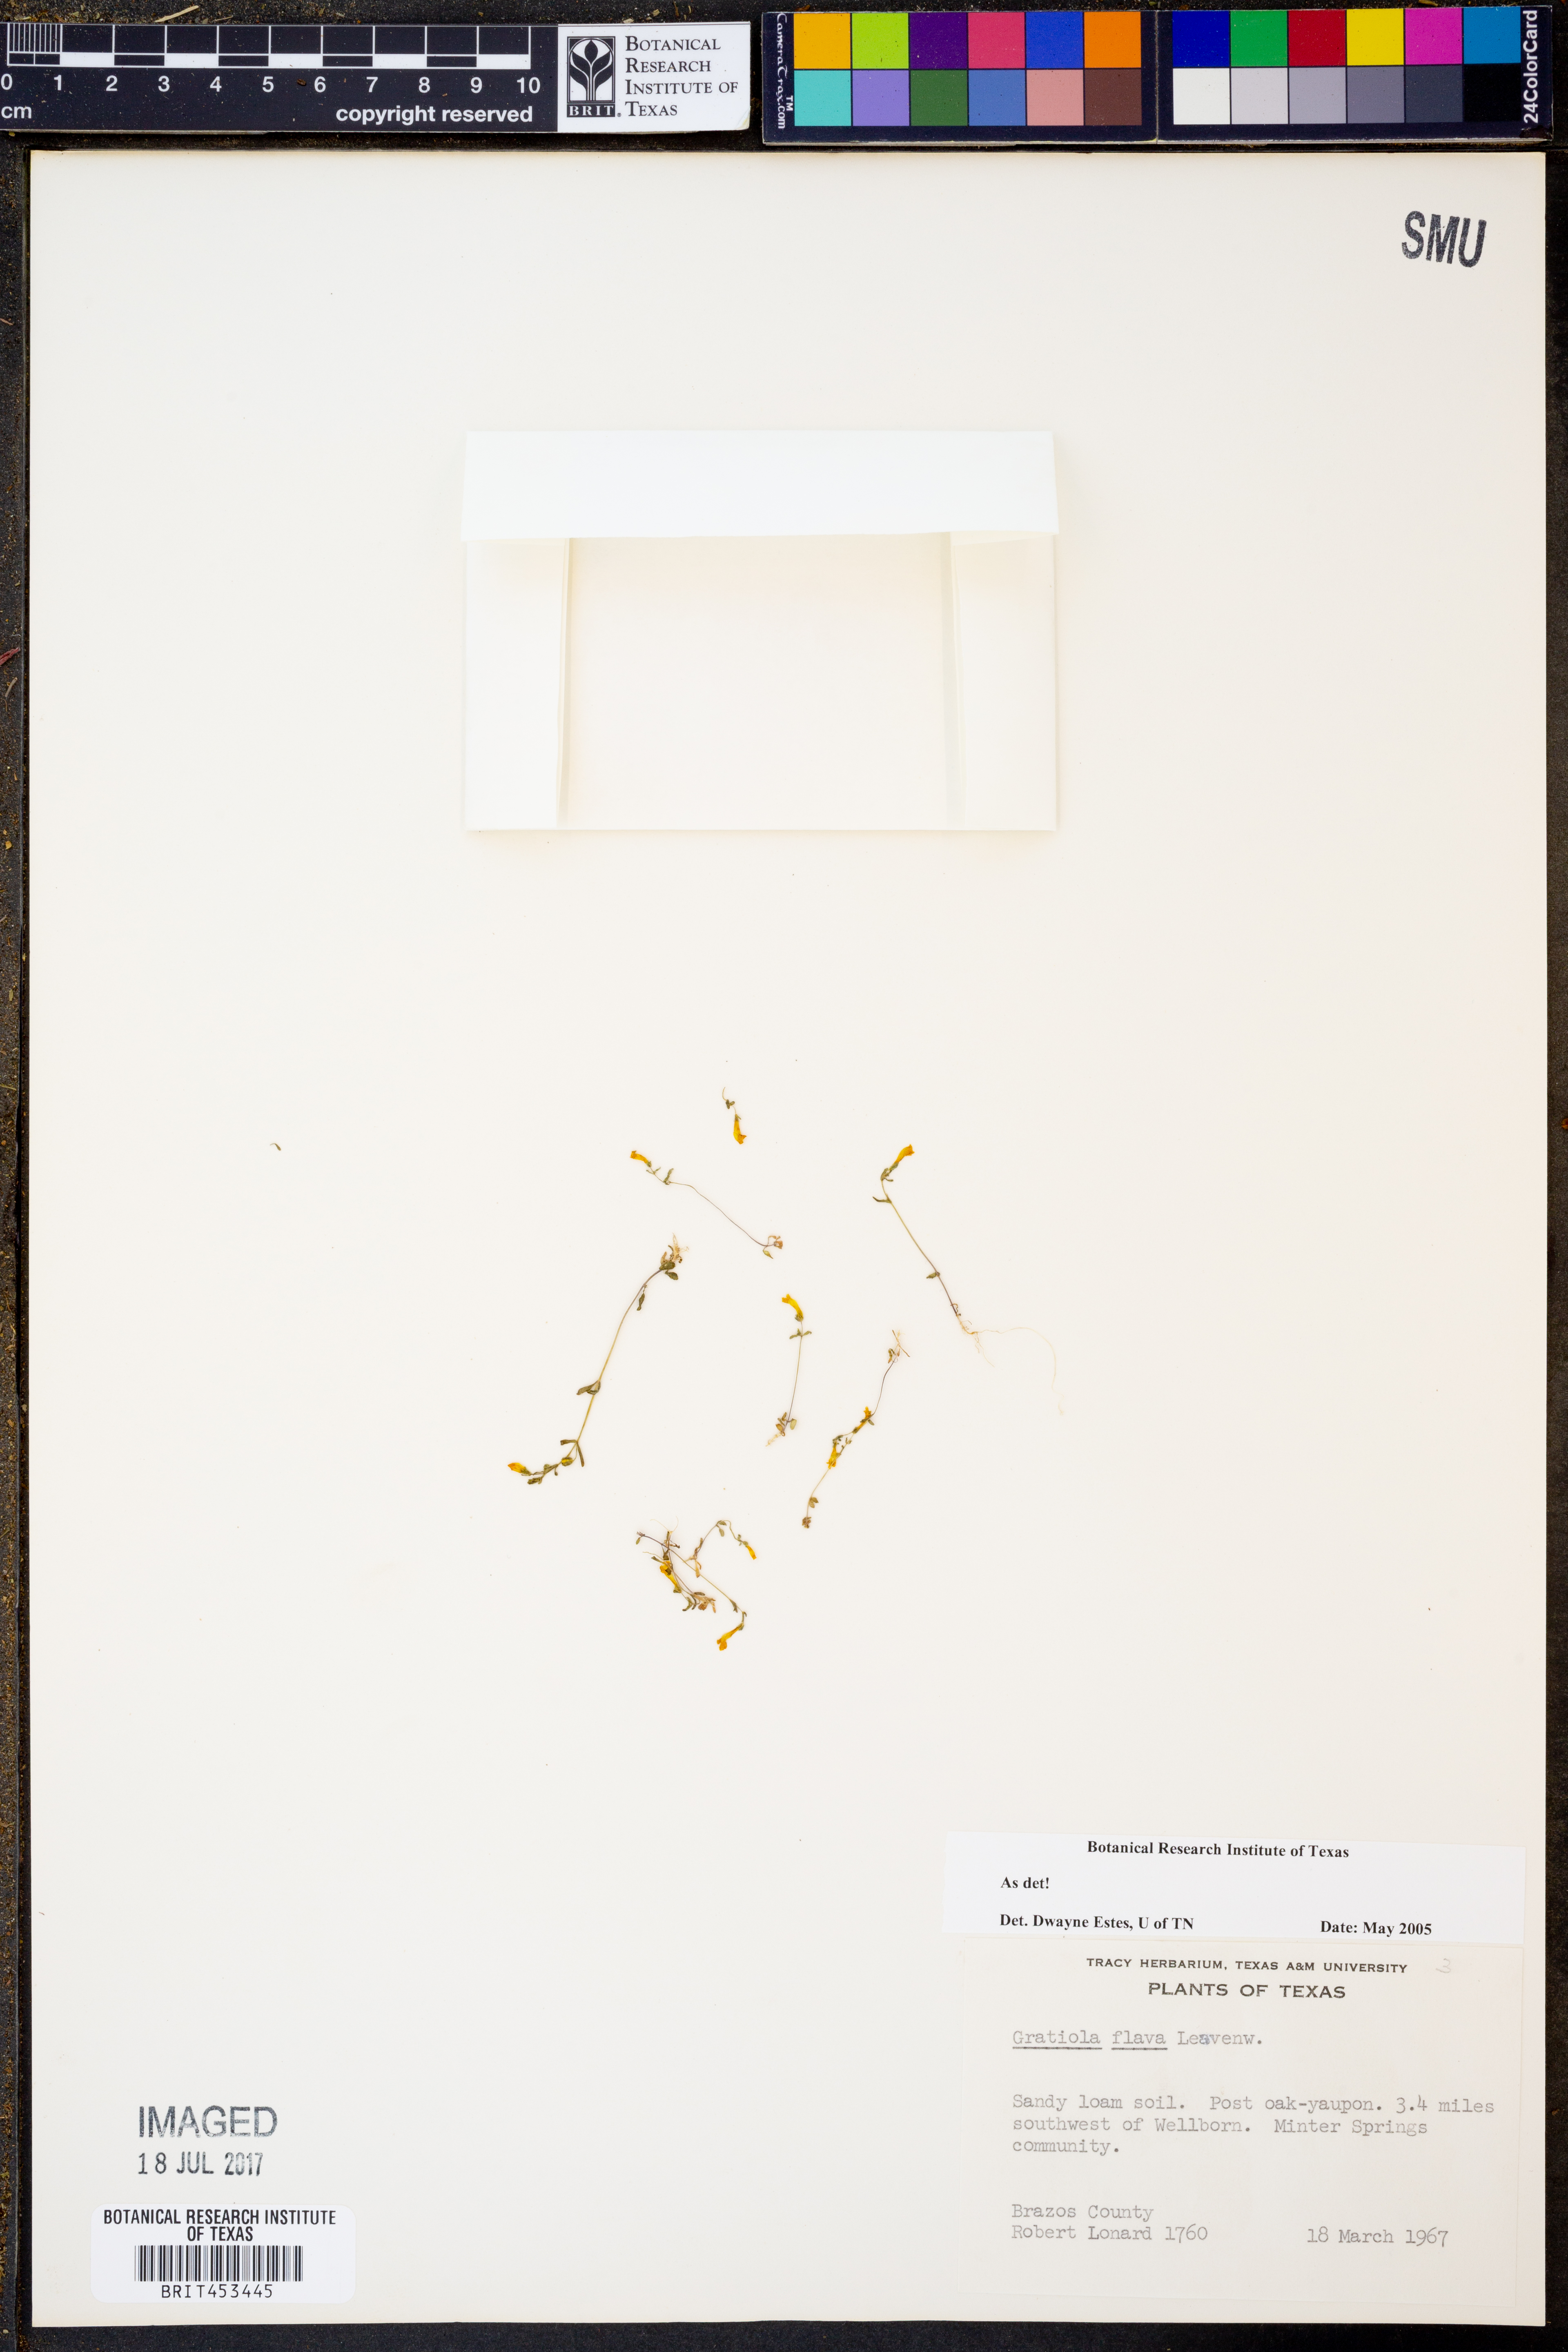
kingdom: Plantae
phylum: Tracheophyta
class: Magnoliopsida
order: Lamiales
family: Plantaginaceae
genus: Gratiola
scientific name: Gratiola flava
